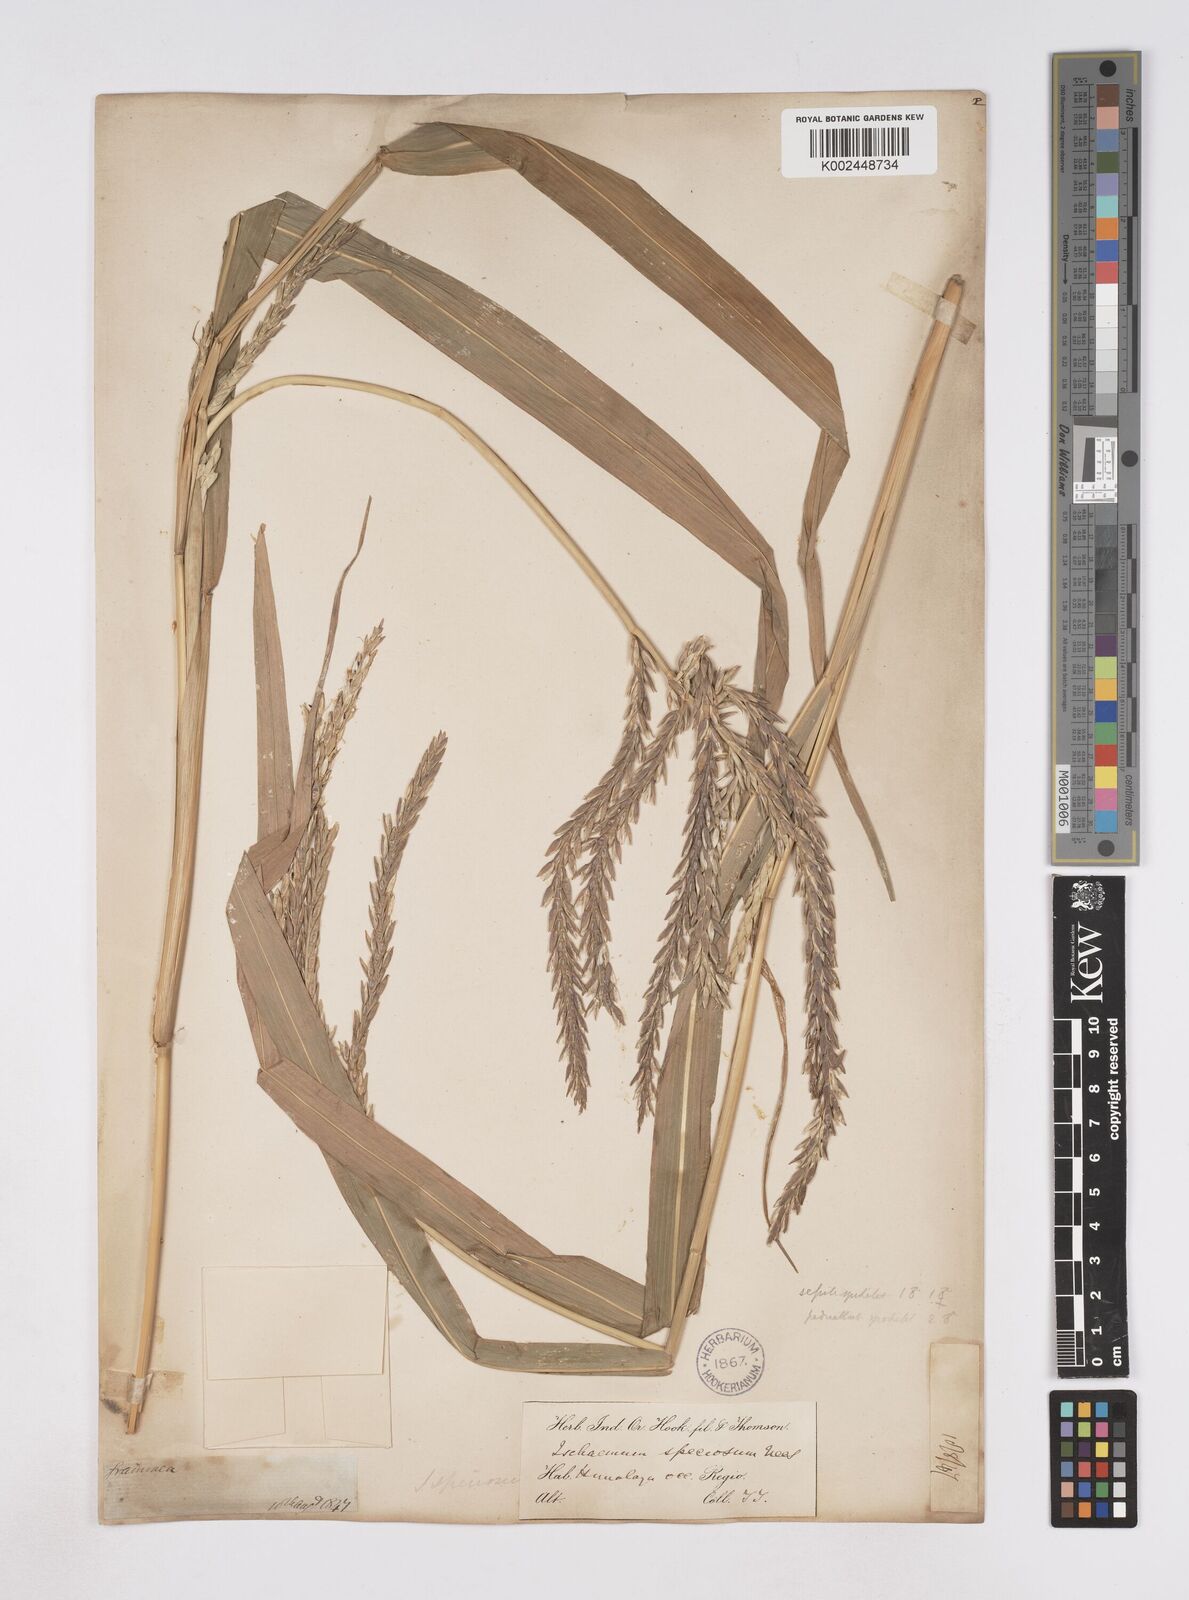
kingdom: Plantae
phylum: Tracheophyta
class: Liliopsida
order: Poales
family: Poaceae
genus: Phacelurus
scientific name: Phacelurus speciosus
